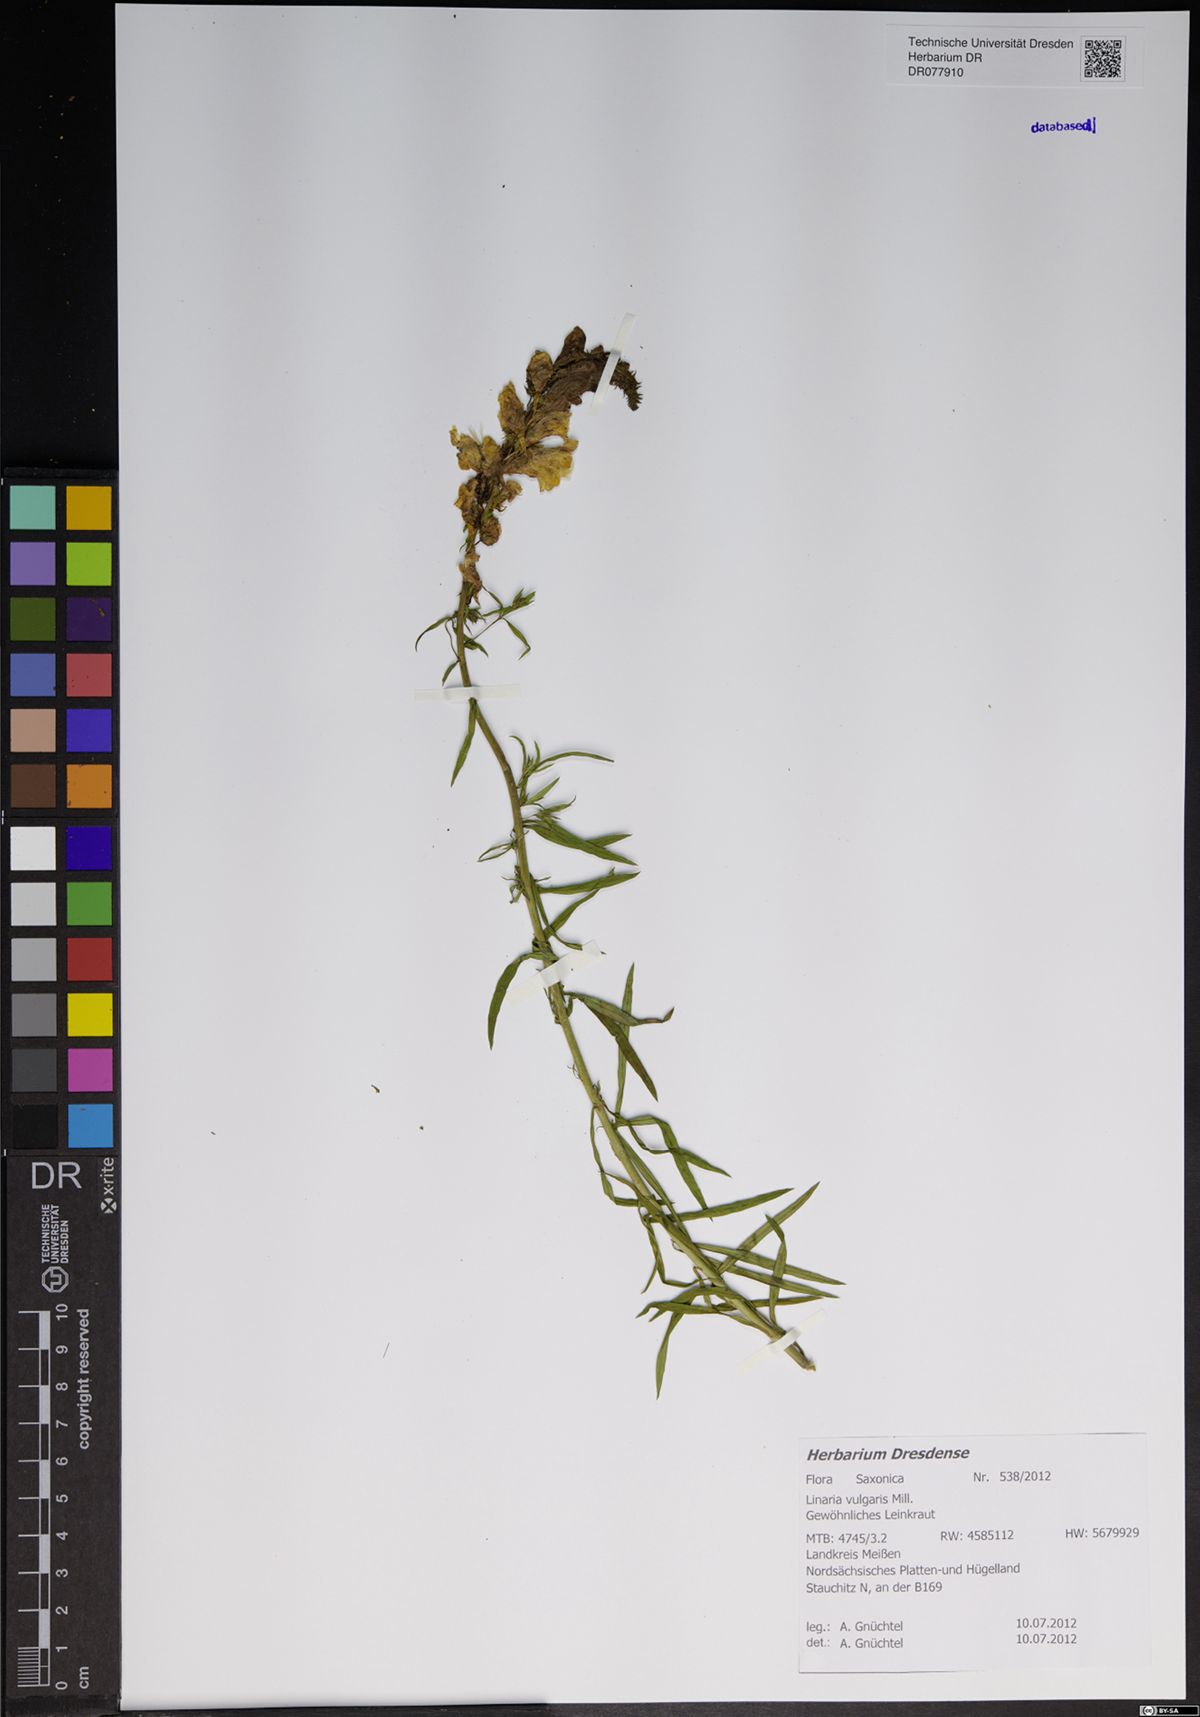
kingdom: Plantae
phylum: Tracheophyta
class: Magnoliopsida
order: Lamiales
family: Plantaginaceae
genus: Linaria
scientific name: Linaria vulgaris
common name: Butter and eggs
